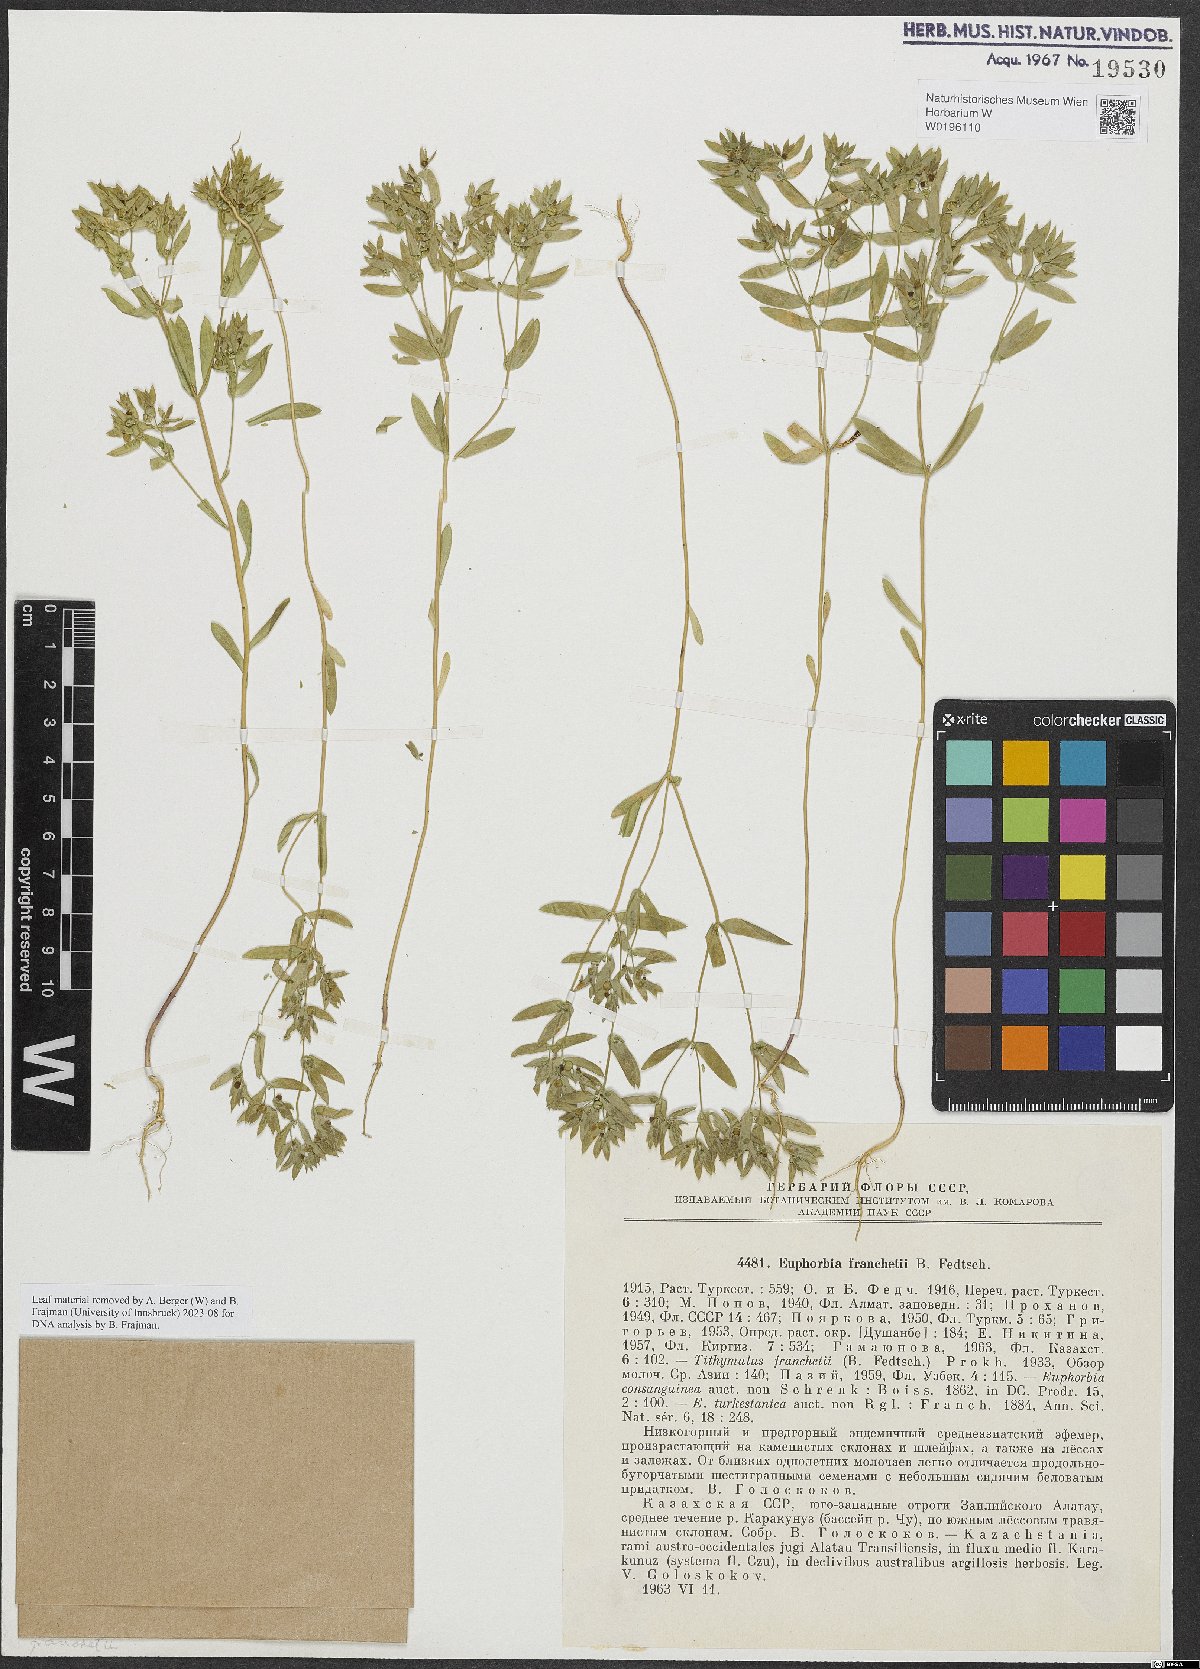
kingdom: Plantae
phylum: Tracheophyta
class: Magnoliopsida
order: Malpighiales
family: Euphorbiaceae
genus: Euphorbia
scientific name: Euphorbia franchetii
